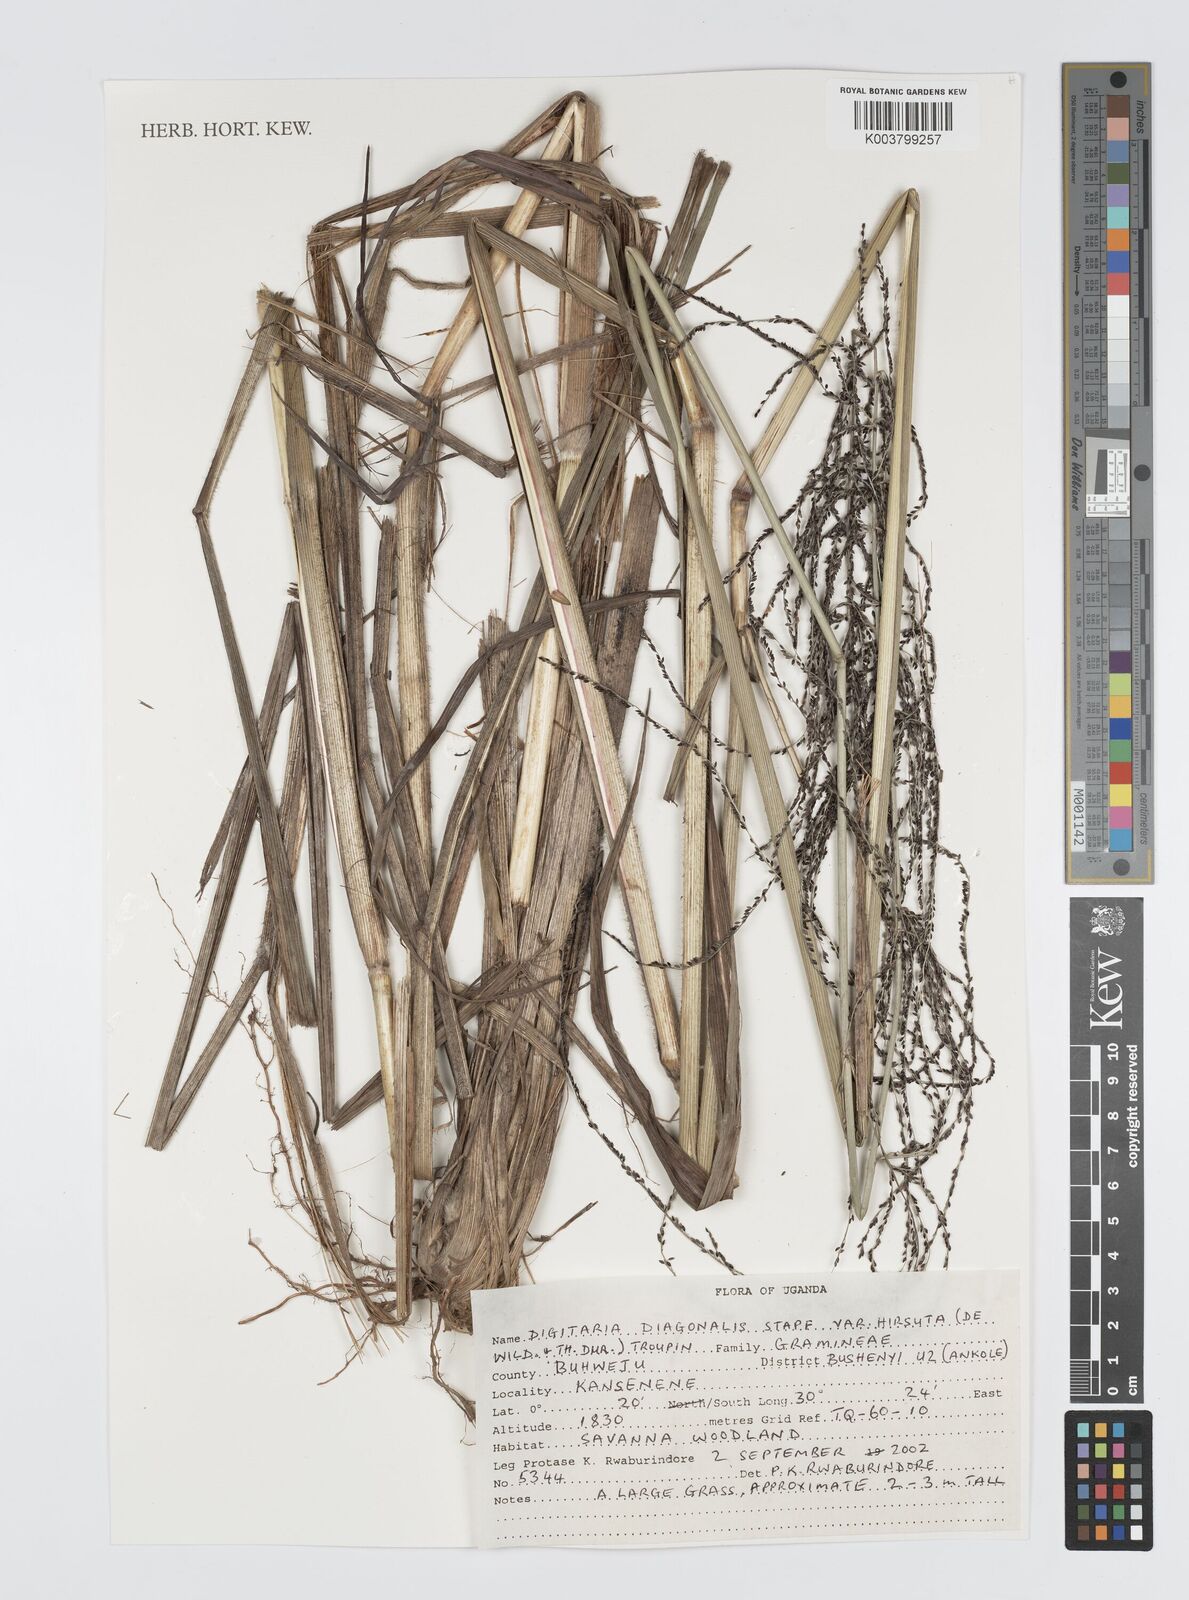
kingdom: Plantae
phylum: Tracheophyta
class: Liliopsida
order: Poales
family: Poaceae
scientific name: Poaceae
